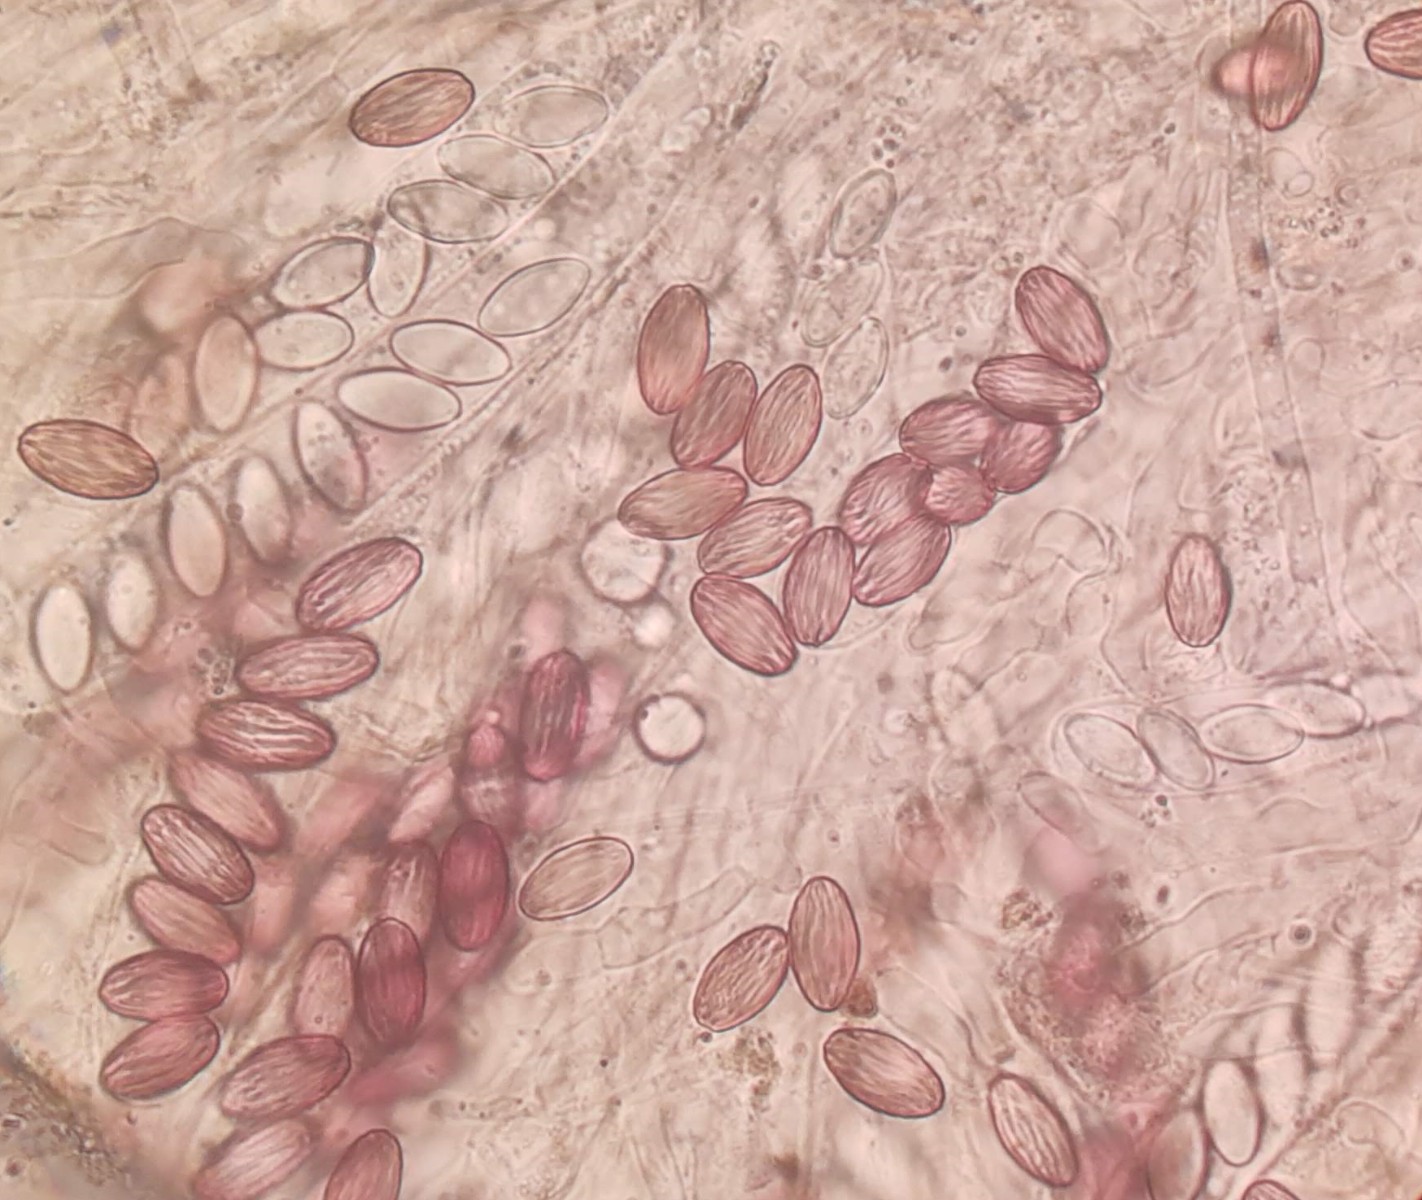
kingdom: Fungi
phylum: Ascomycota
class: Pezizomycetes
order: Pezizales
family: Ascobolaceae
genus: Ascobolus
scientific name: Ascobolus crenulatus
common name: gullig prikbæger
